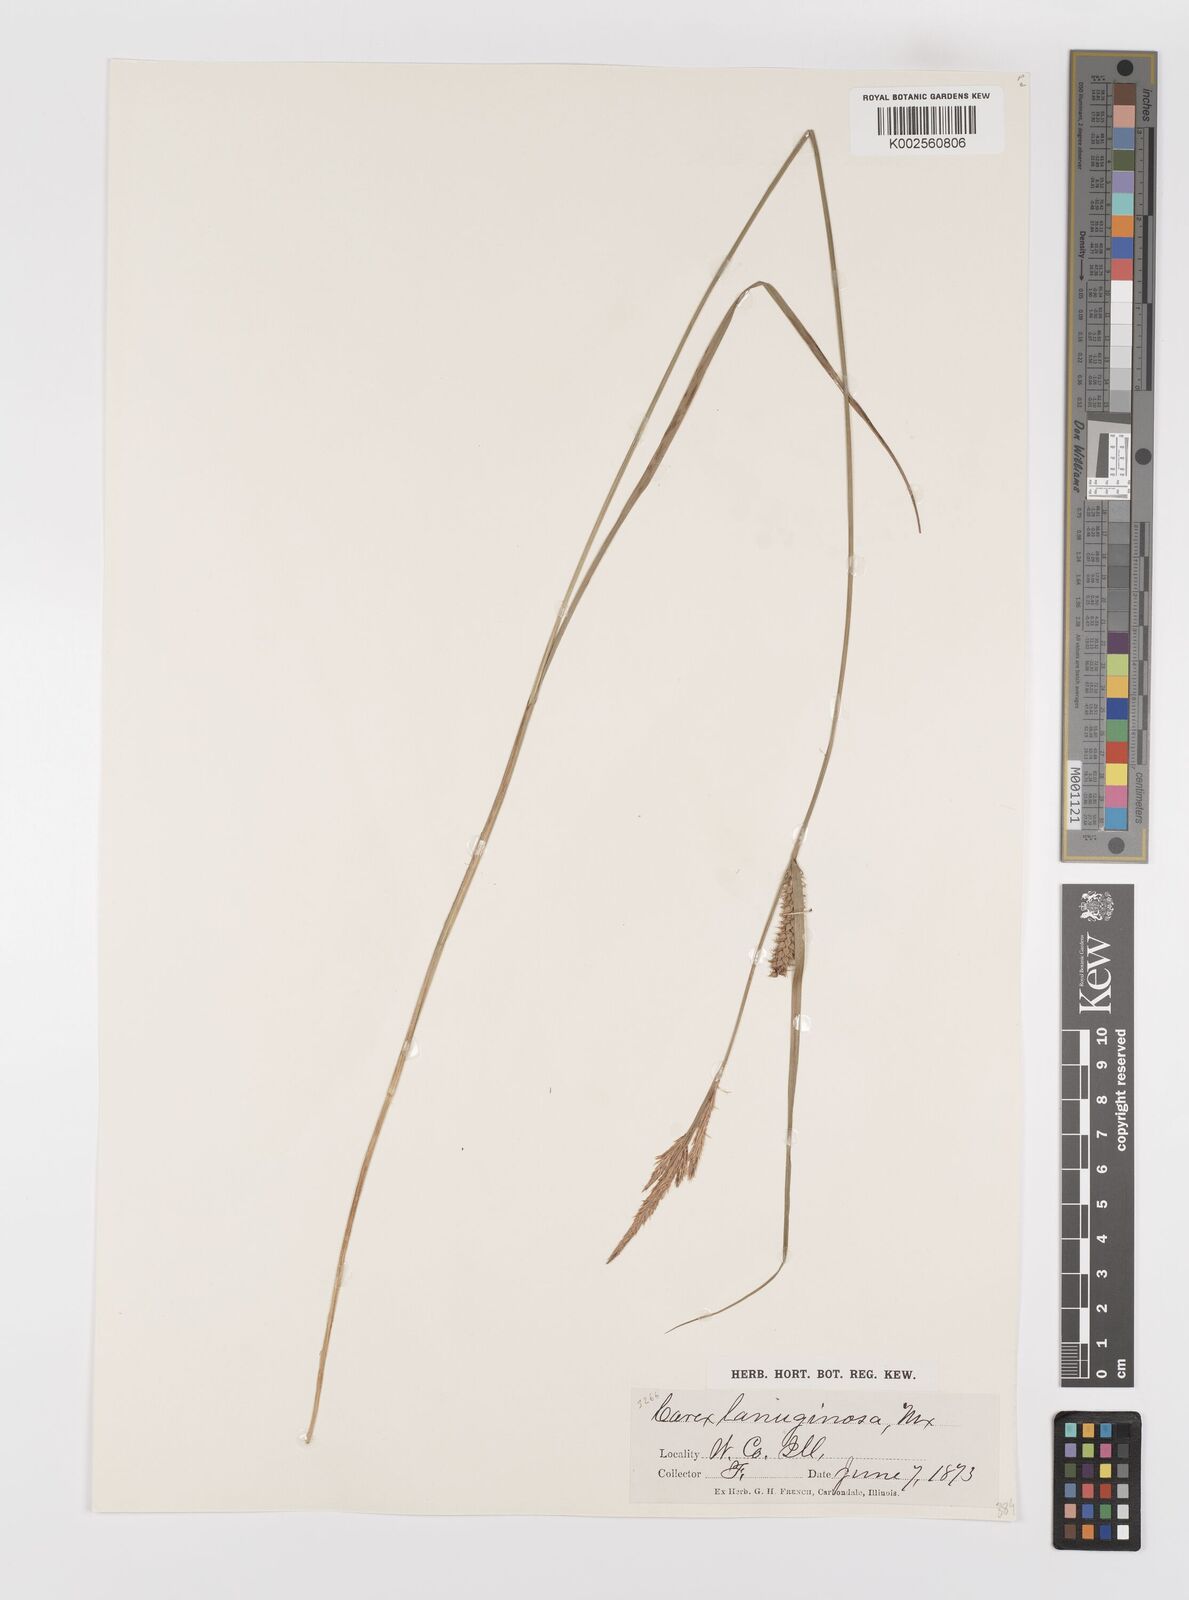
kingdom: Plantae
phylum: Tracheophyta
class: Liliopsida
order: Poales
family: Cyperaceae
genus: Carex
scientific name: Carex lasiocarpa
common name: Slender sedge
